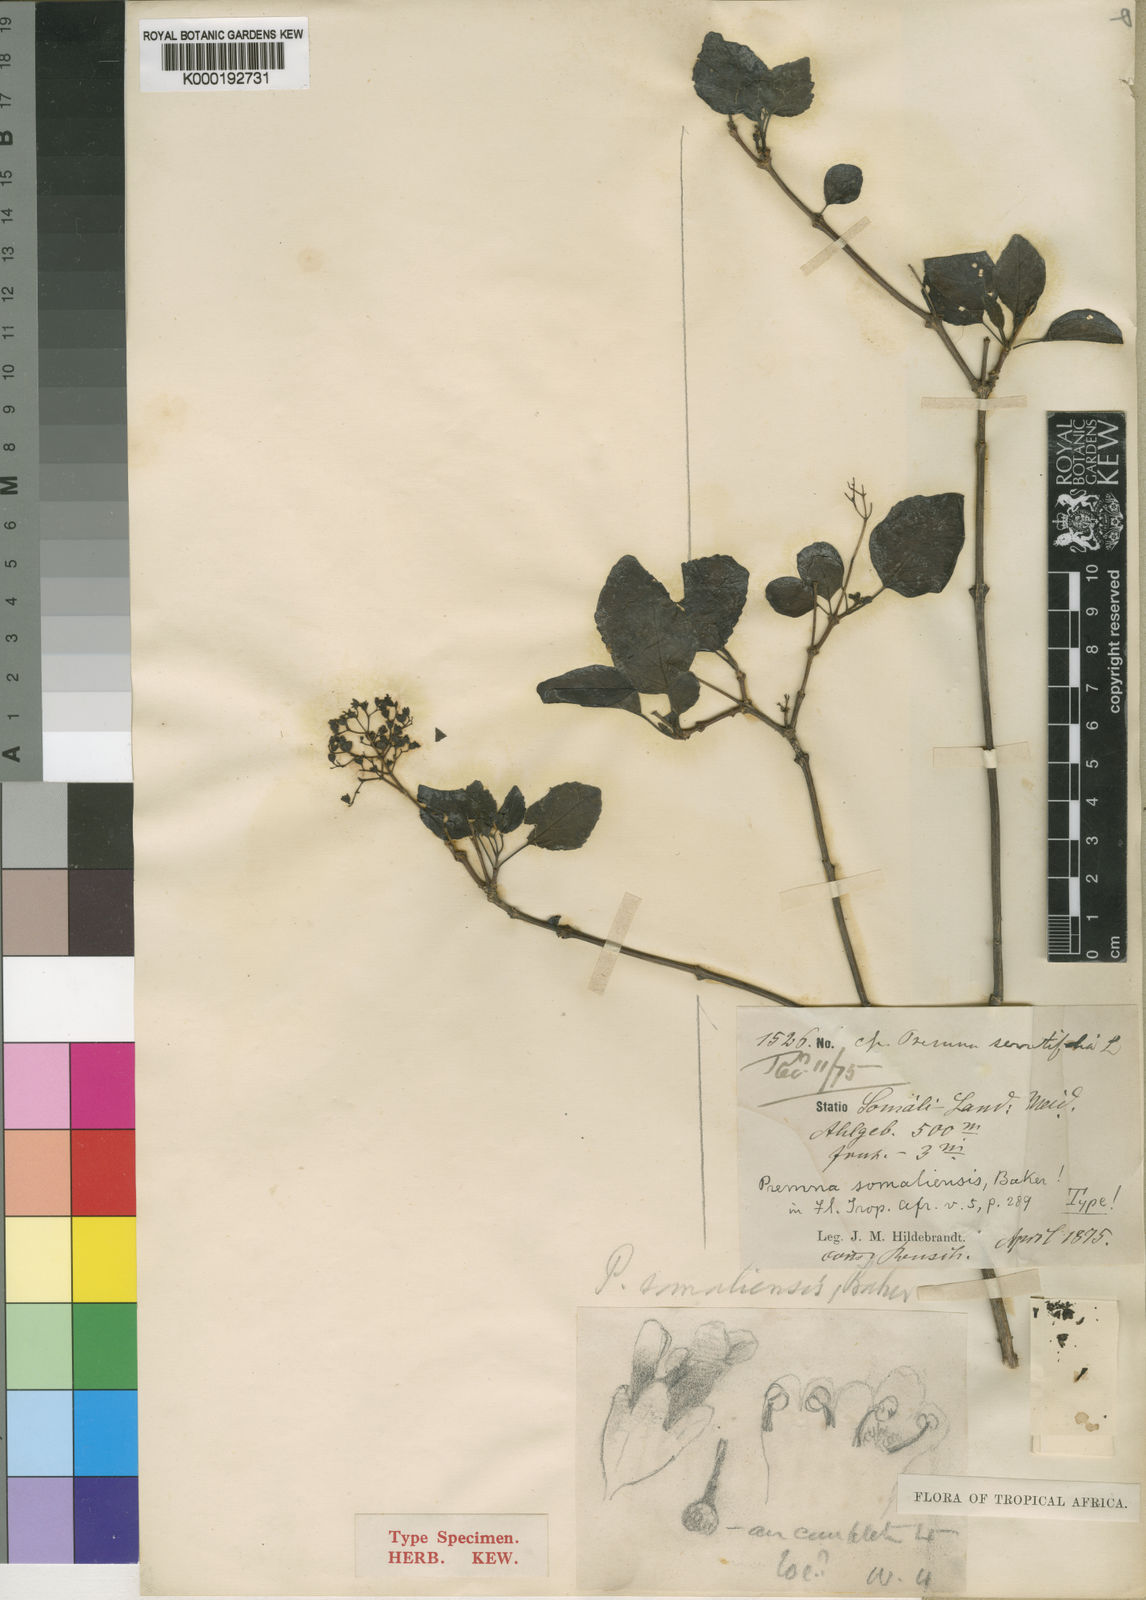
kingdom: Plantae
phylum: Tracheophyta
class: Magnoliopsida
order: Lamiales
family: Lamiaceae
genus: Premna
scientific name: Premna oligotricha
